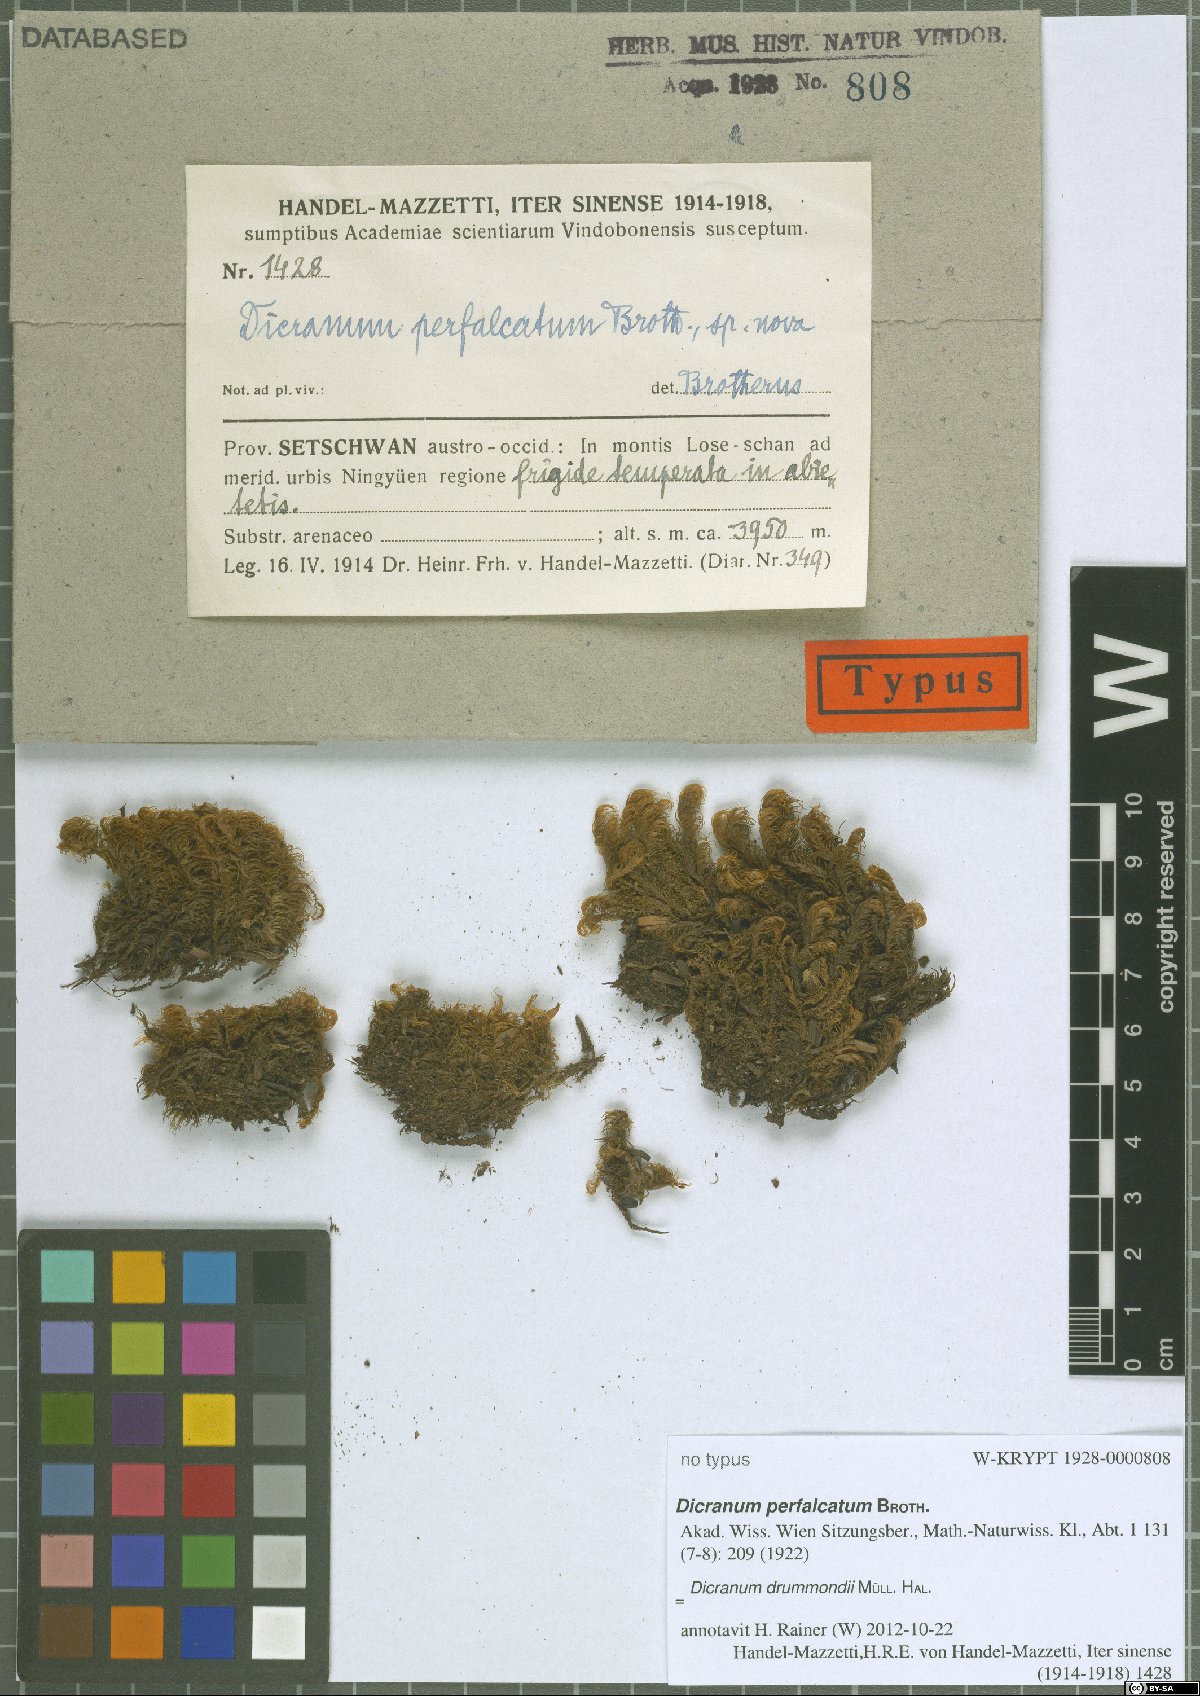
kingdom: Plantae
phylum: Bryophyta
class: Bryopsida
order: Dicranales
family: Dicranaceae
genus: Dicranum
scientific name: Dicranum drummondii
